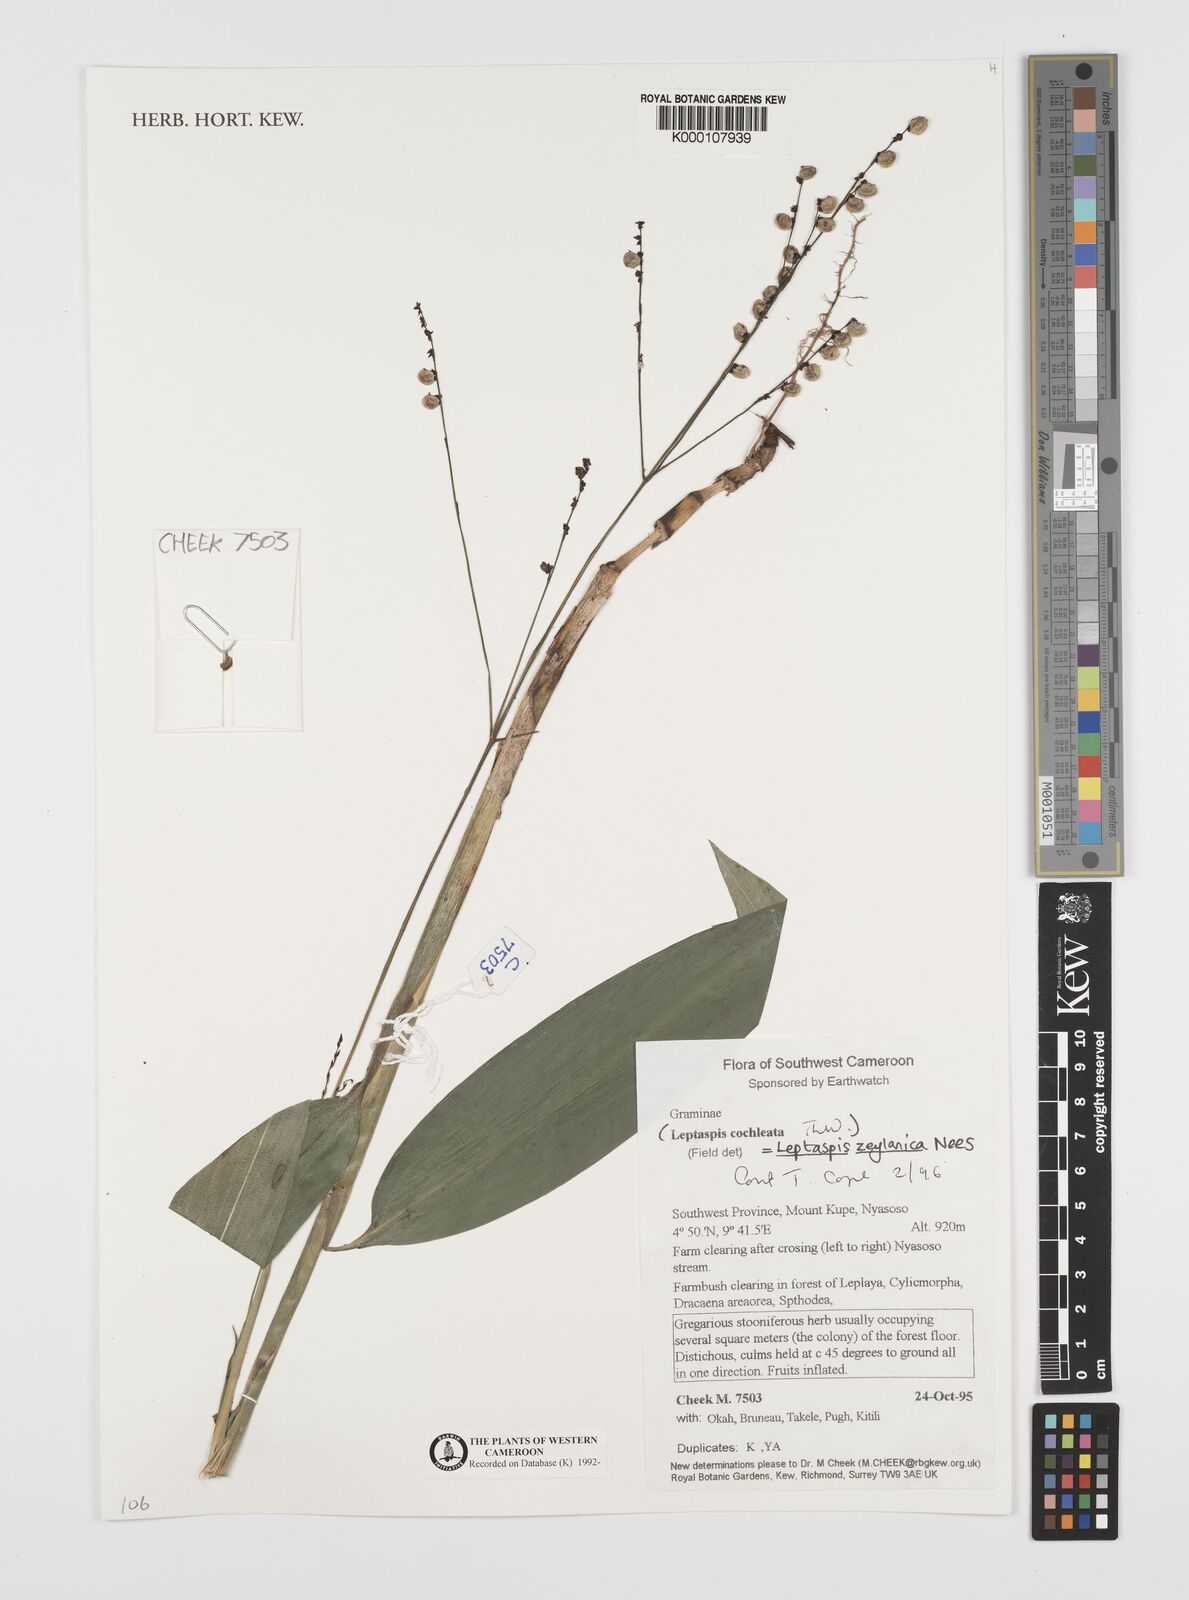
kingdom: Plantae
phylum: Tracheophyta
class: Liliopsida
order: Poales
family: Poaceae
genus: Leptaspis
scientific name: Leptaspis zeylanica
